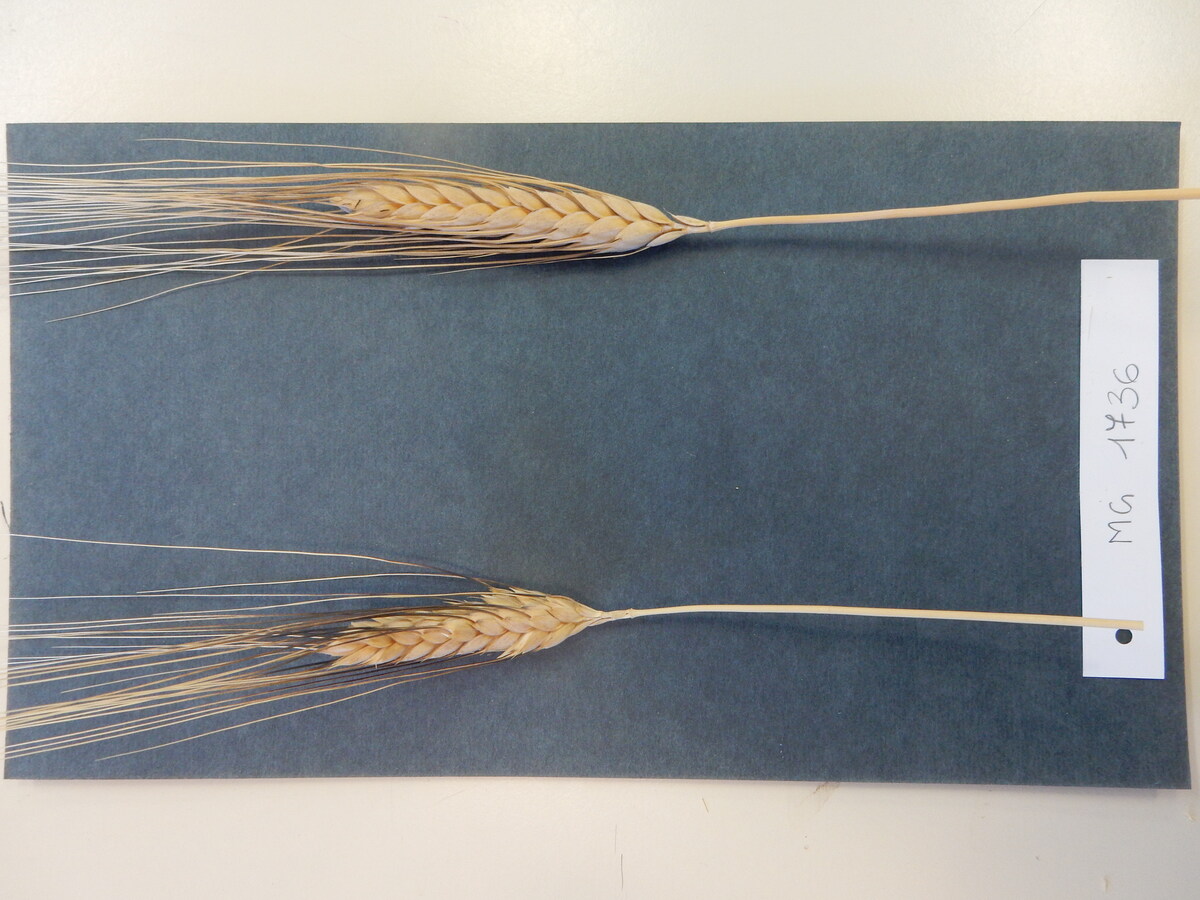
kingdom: Plantae
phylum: Tracheophyta
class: Liliopsida
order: Poales
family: Poaceae
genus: Triticum
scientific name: Triticum turgidum
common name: Wheat
